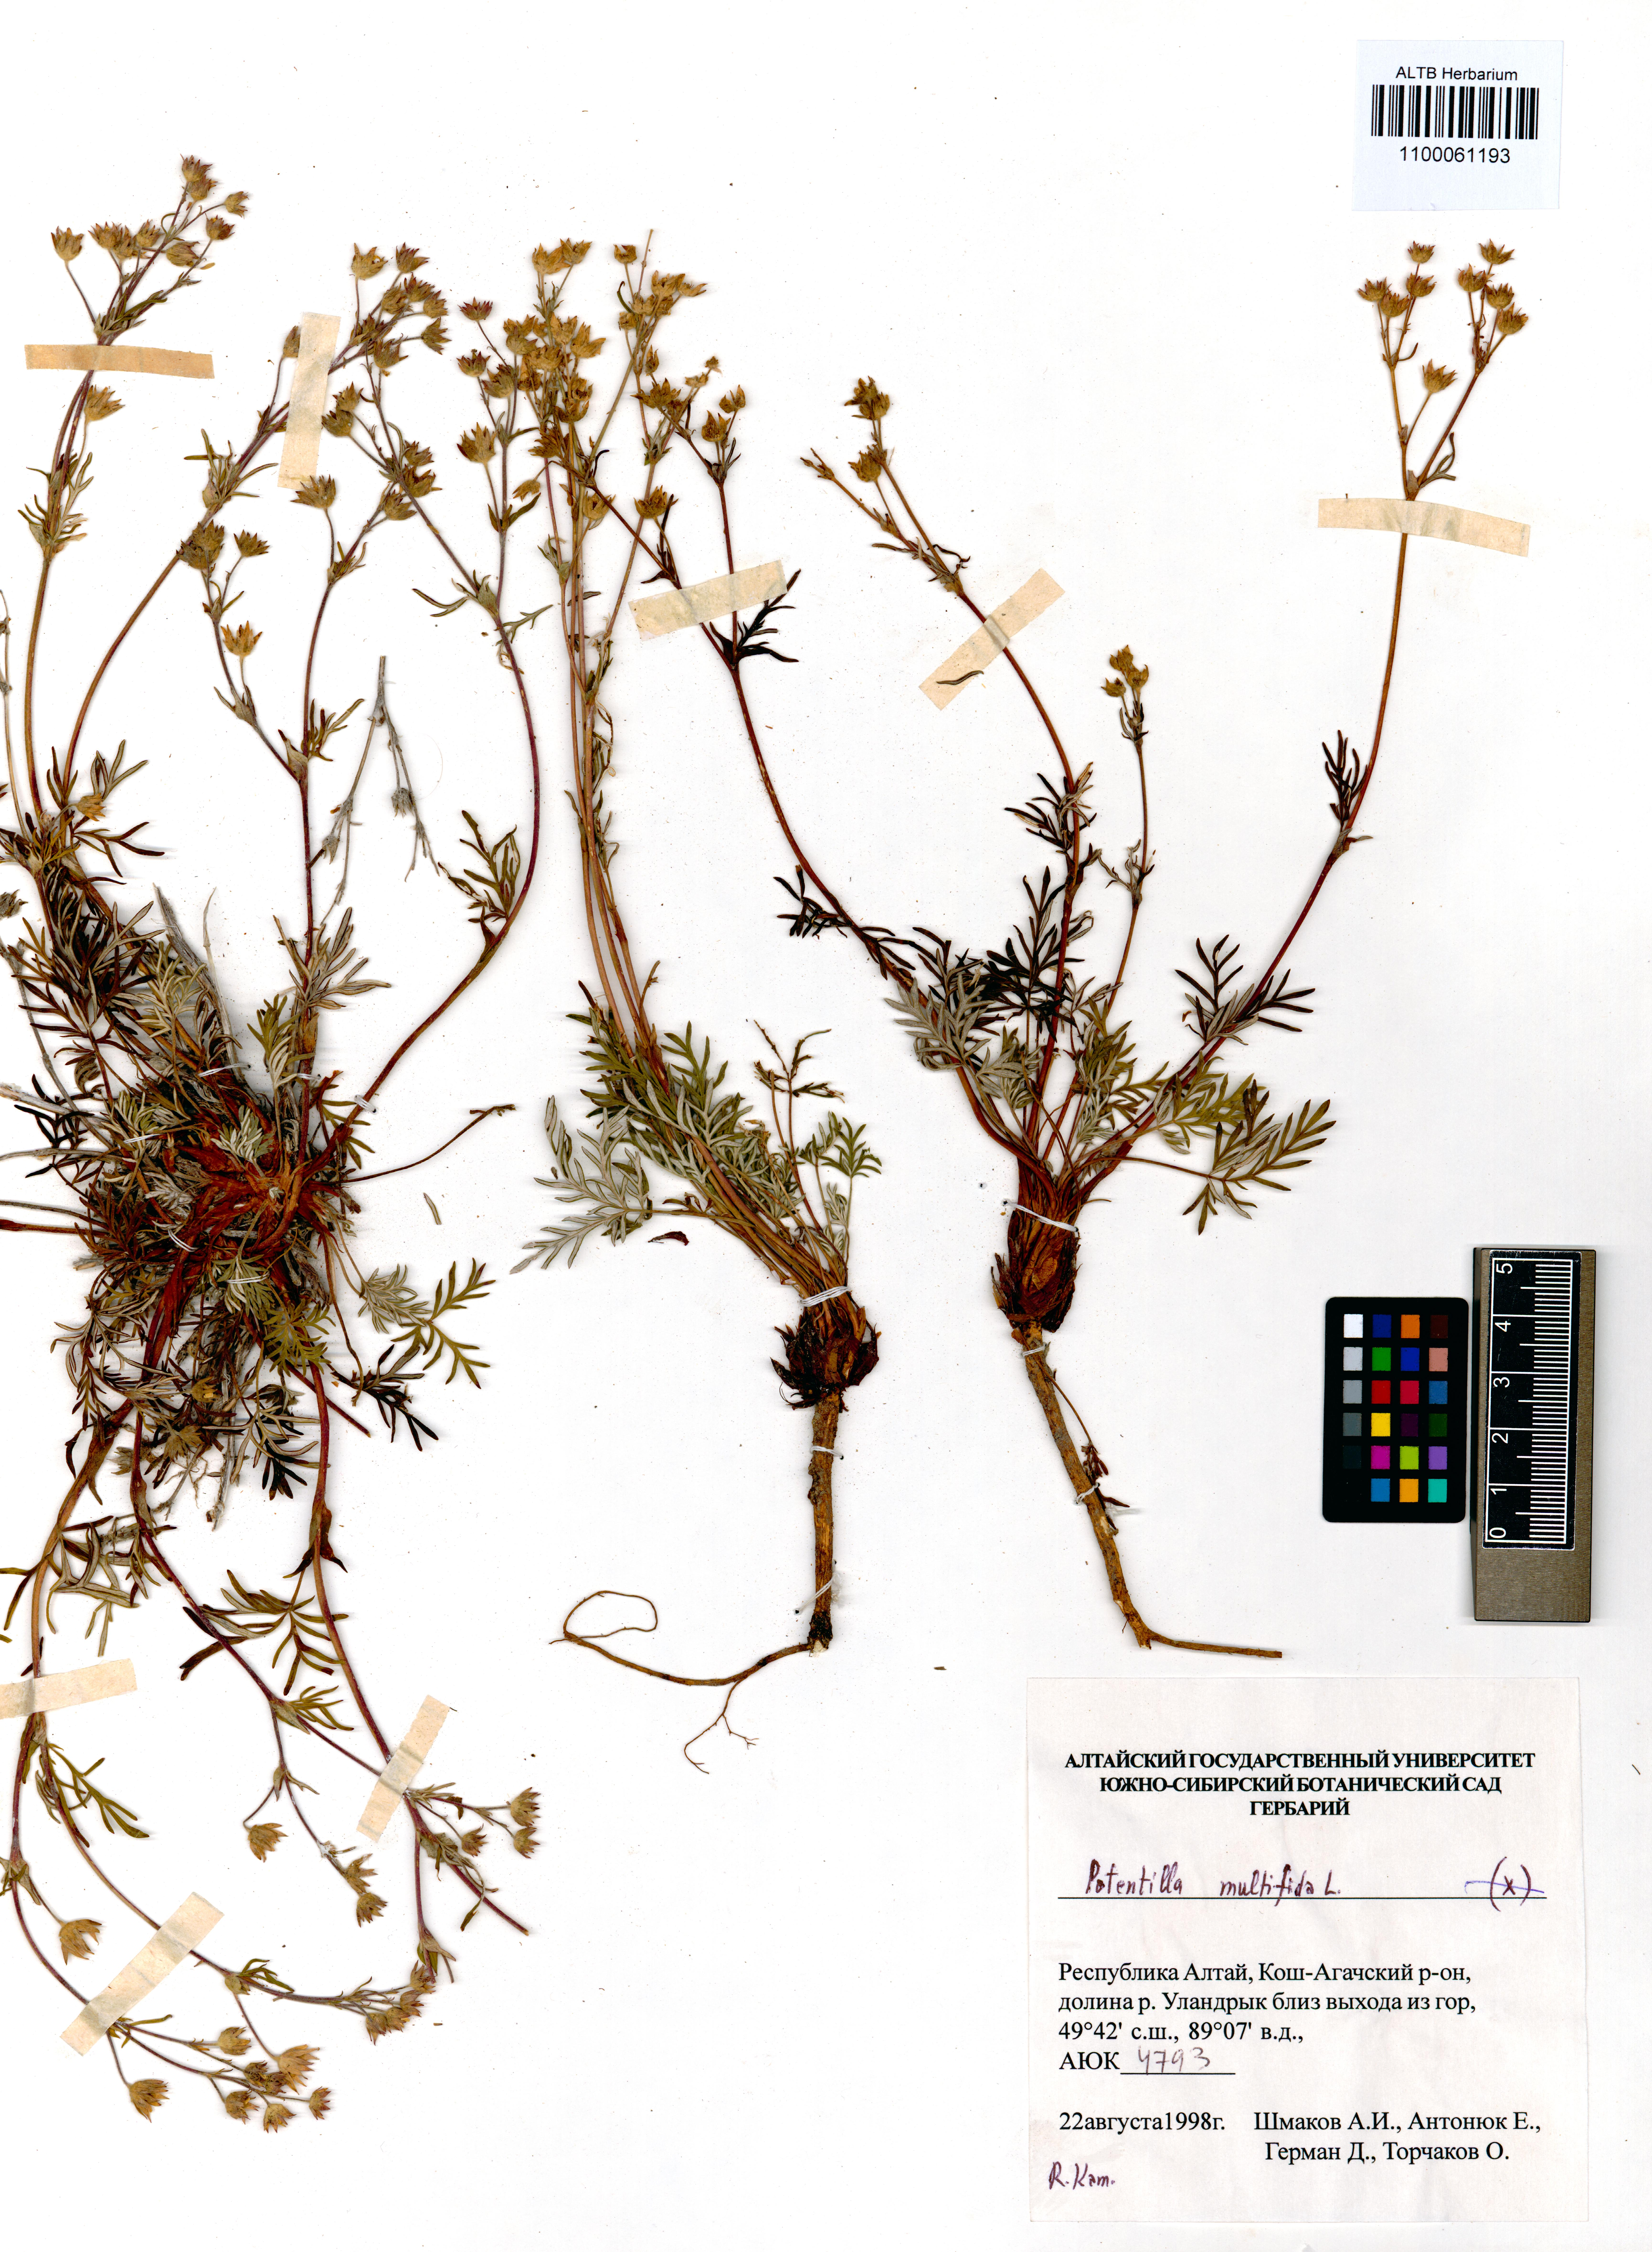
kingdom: Plantae
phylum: Tracheophyta
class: Magnoliopsida
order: Rosales
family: Rosaceae
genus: Potentilla
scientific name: Potentilla multifida
